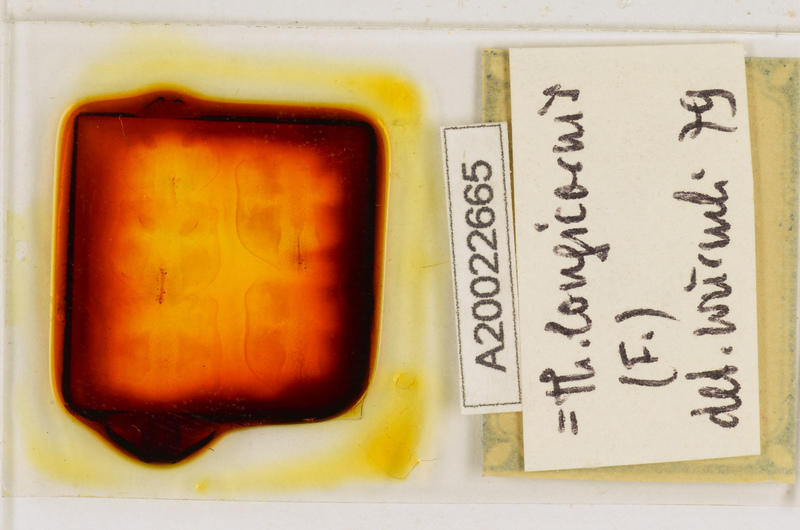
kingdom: Animalia
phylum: Arthropoda
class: Chilopoda
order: Scutigeromorpha
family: Scutigeridae
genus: Thereuopoda
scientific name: Thereuopoda longicornis
